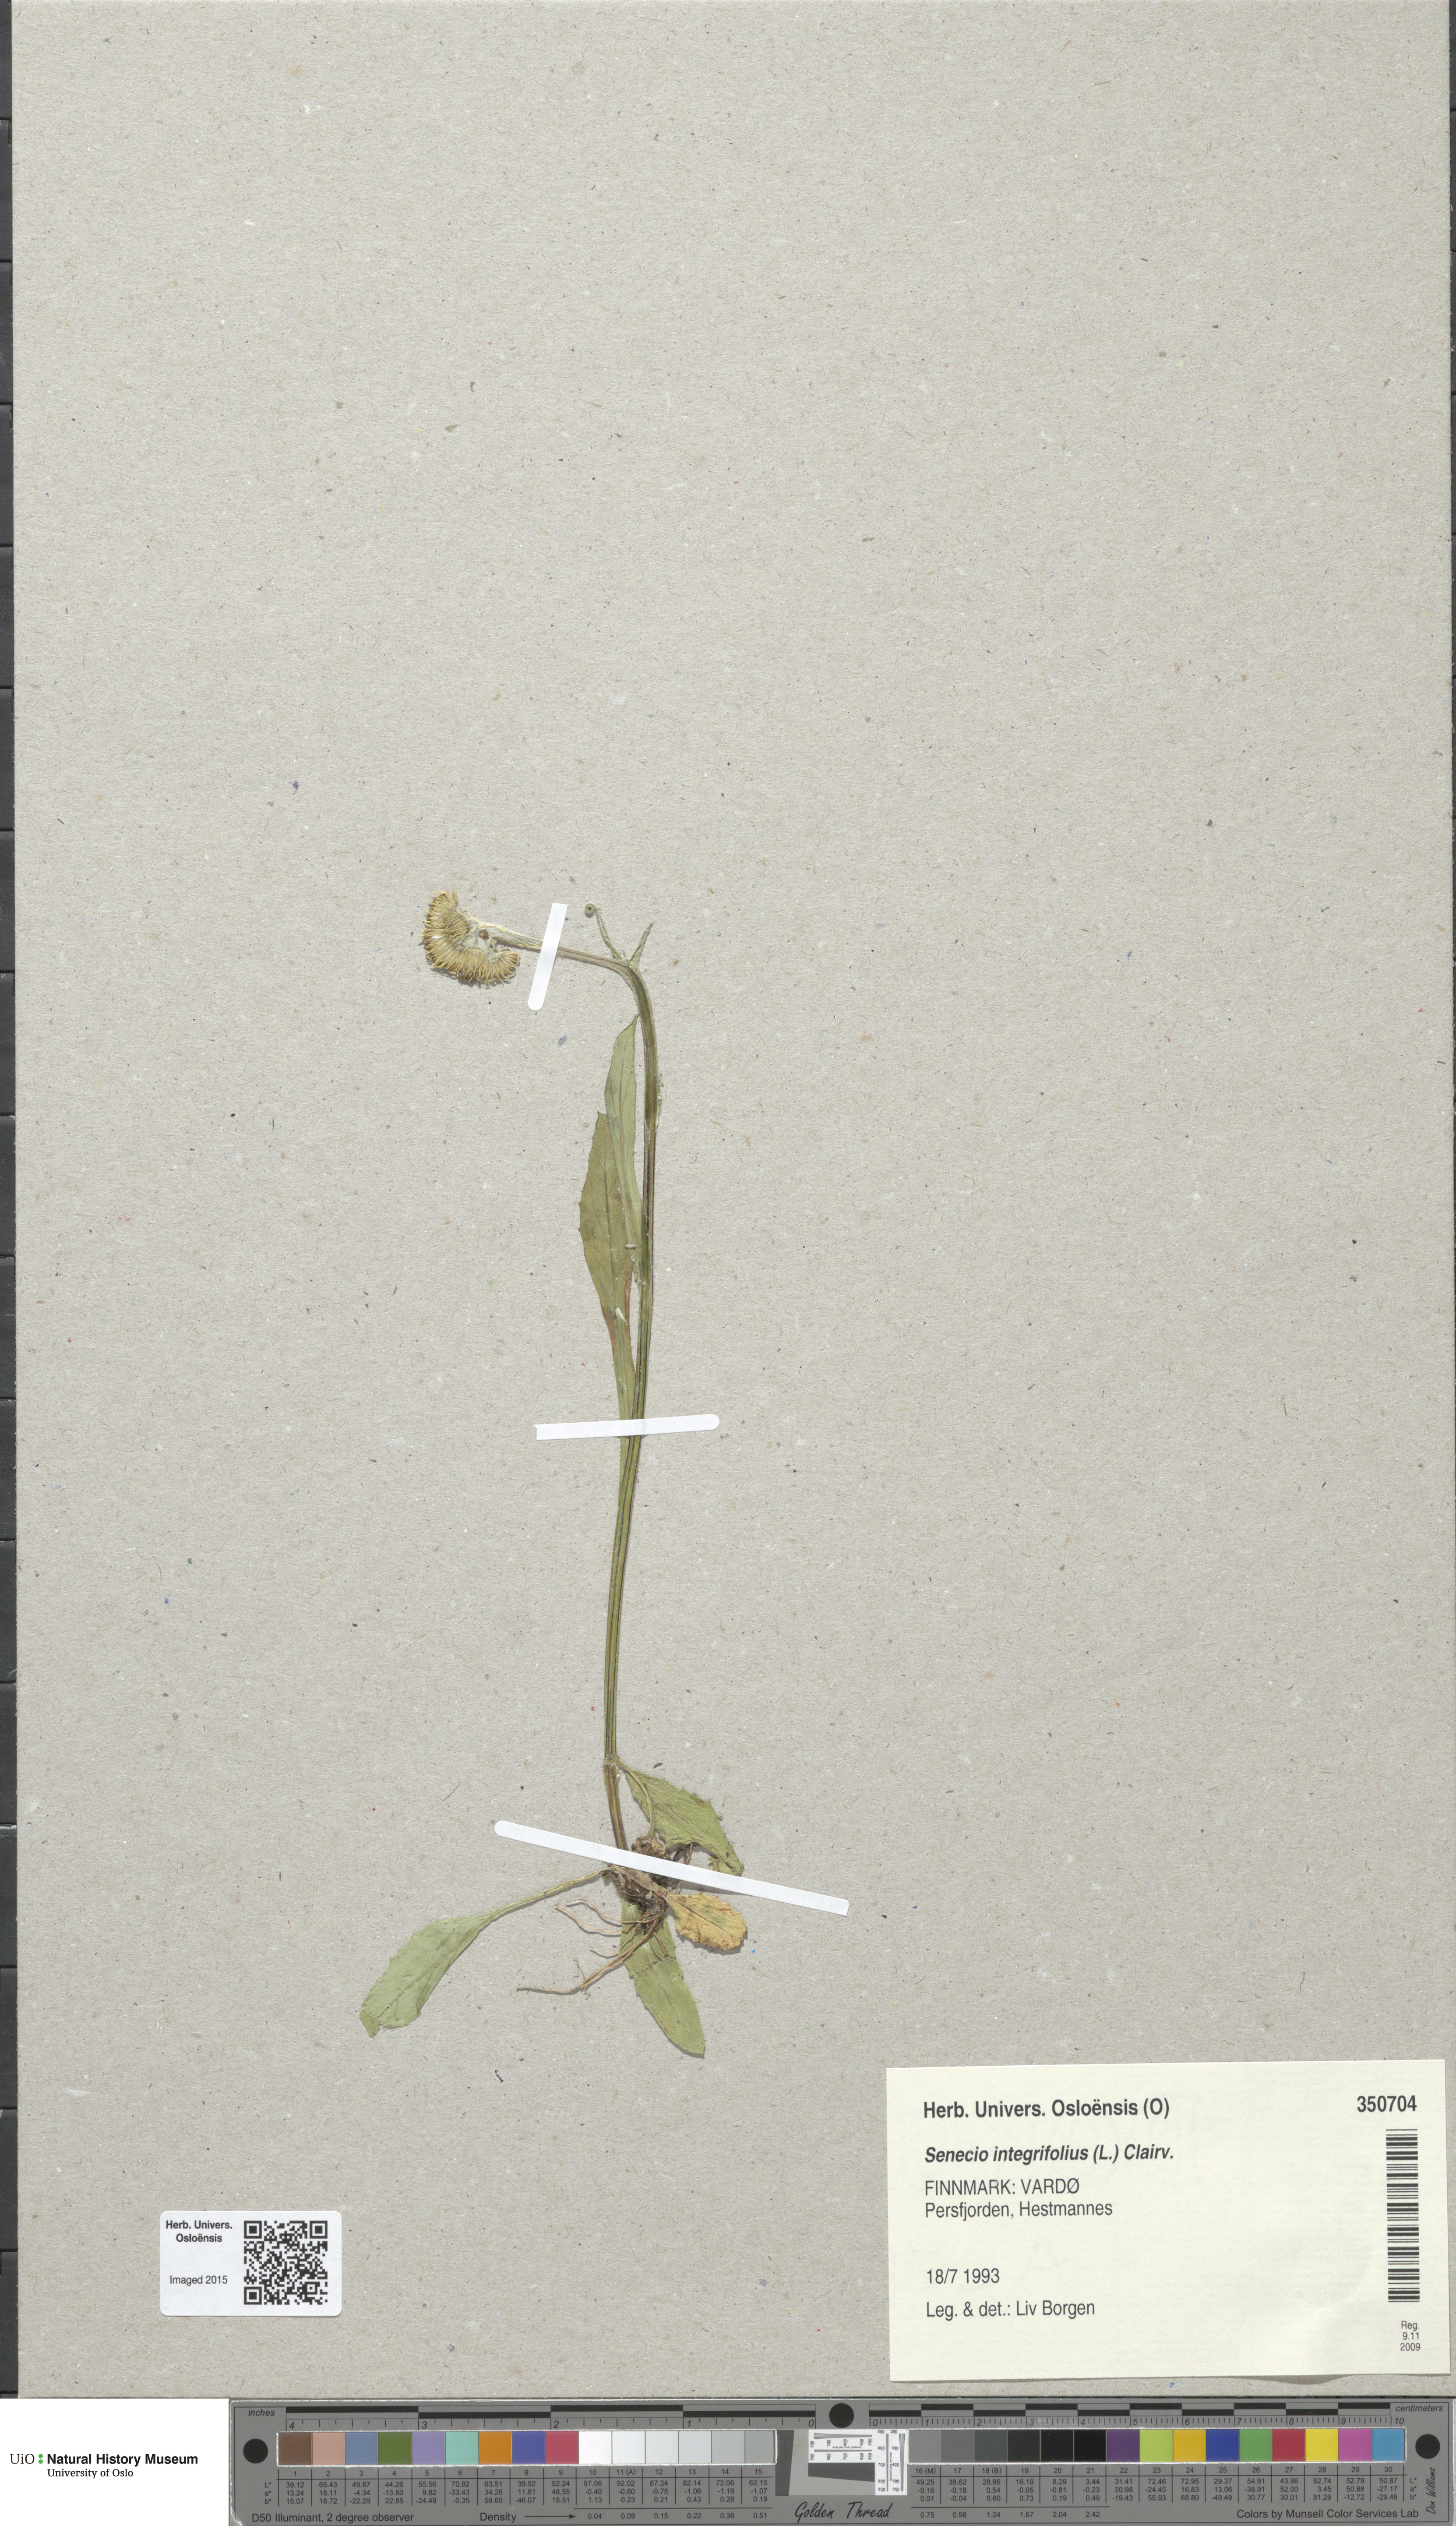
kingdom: Plantae
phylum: Tracheophyta
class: Magnoliopsida
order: Asterales
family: Asteraceae
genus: Tephroseris
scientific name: Tephroseris integrifolia
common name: Field fleawort
